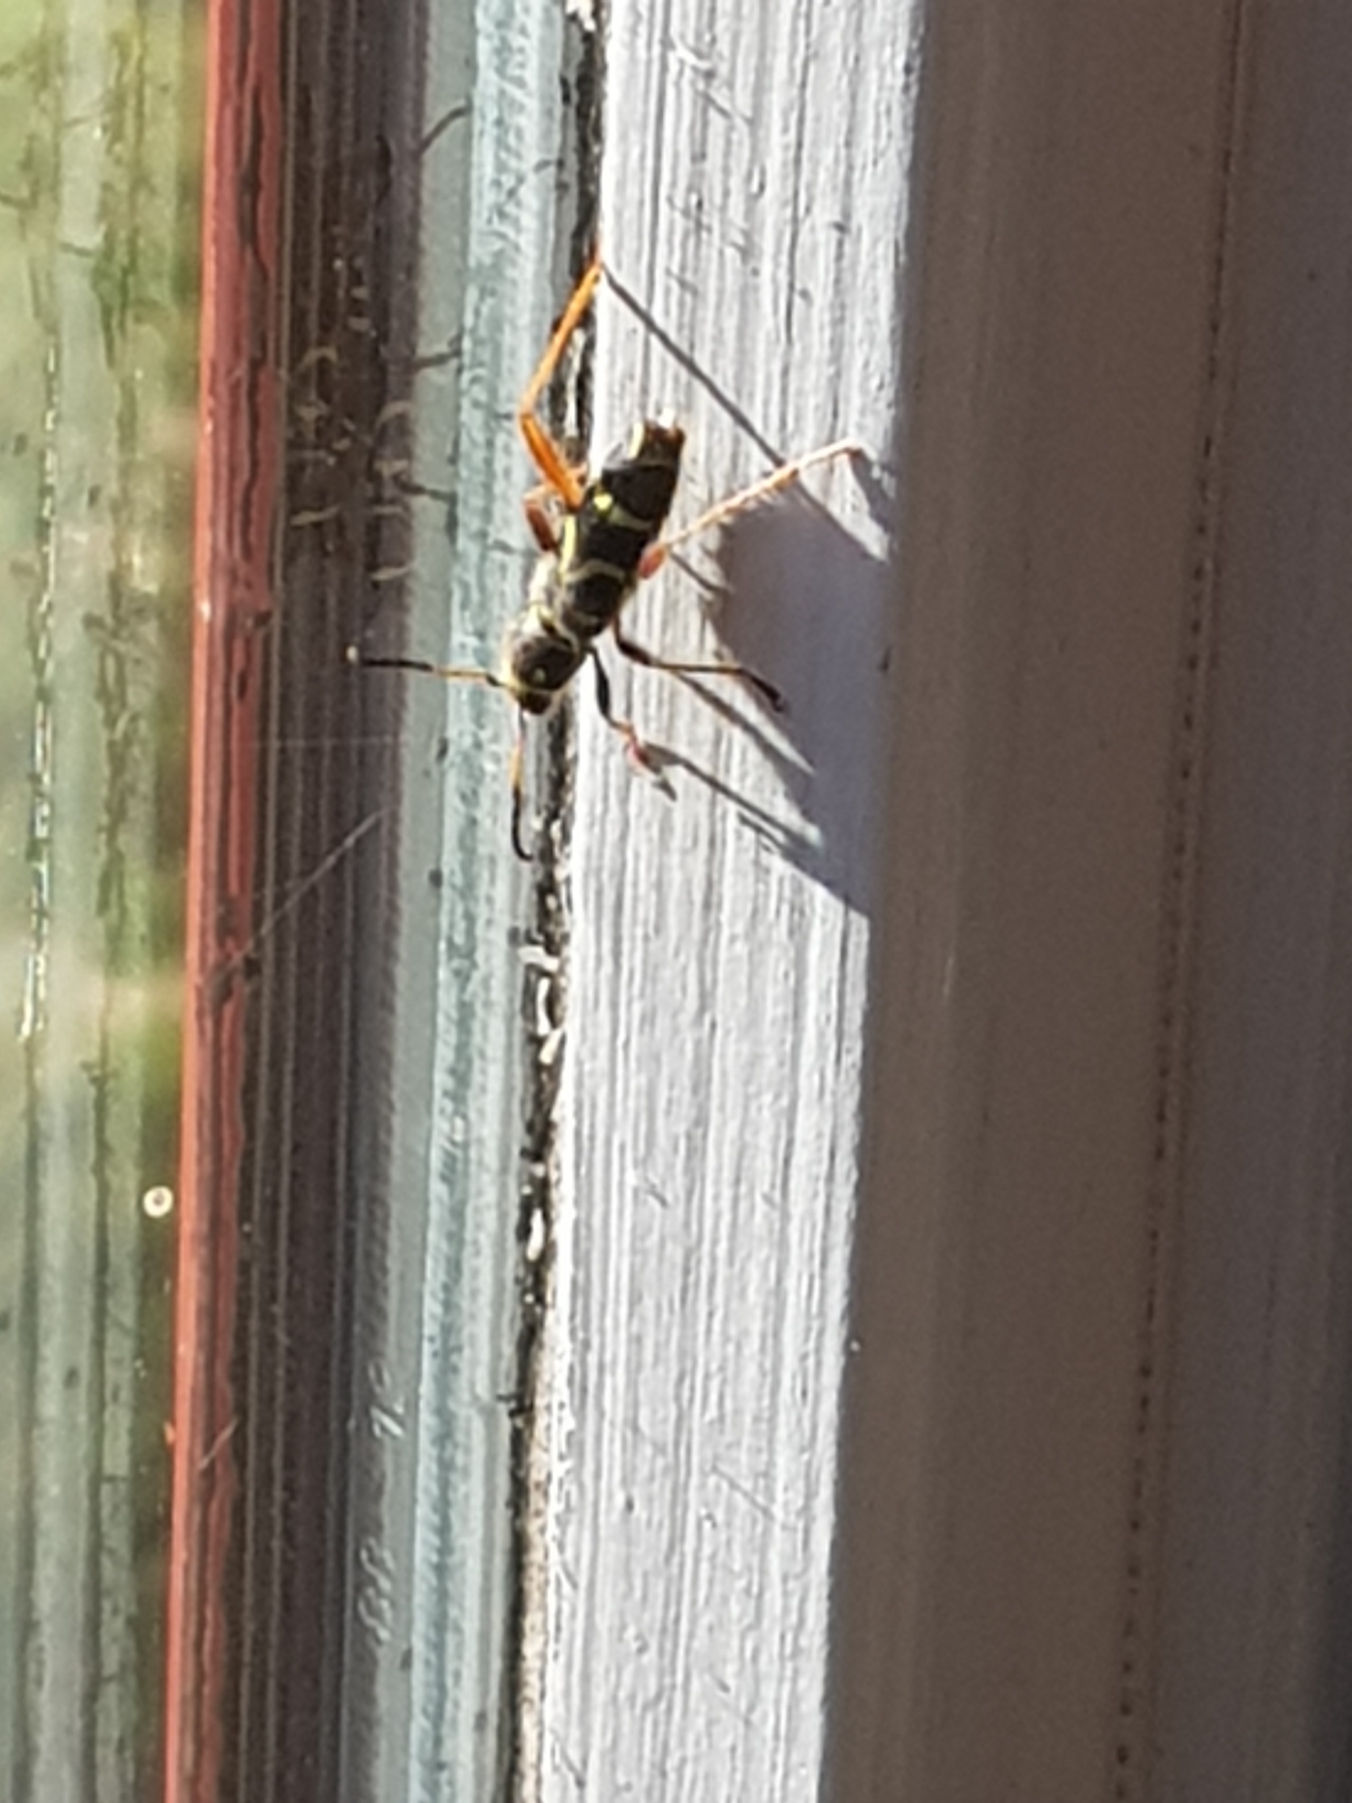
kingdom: Animalia
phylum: Arthropoda
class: Insecta
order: Coleoptera
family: Cerambycidae
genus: Clytus
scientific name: Clytus arietis
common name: Lille hvepsebuk
